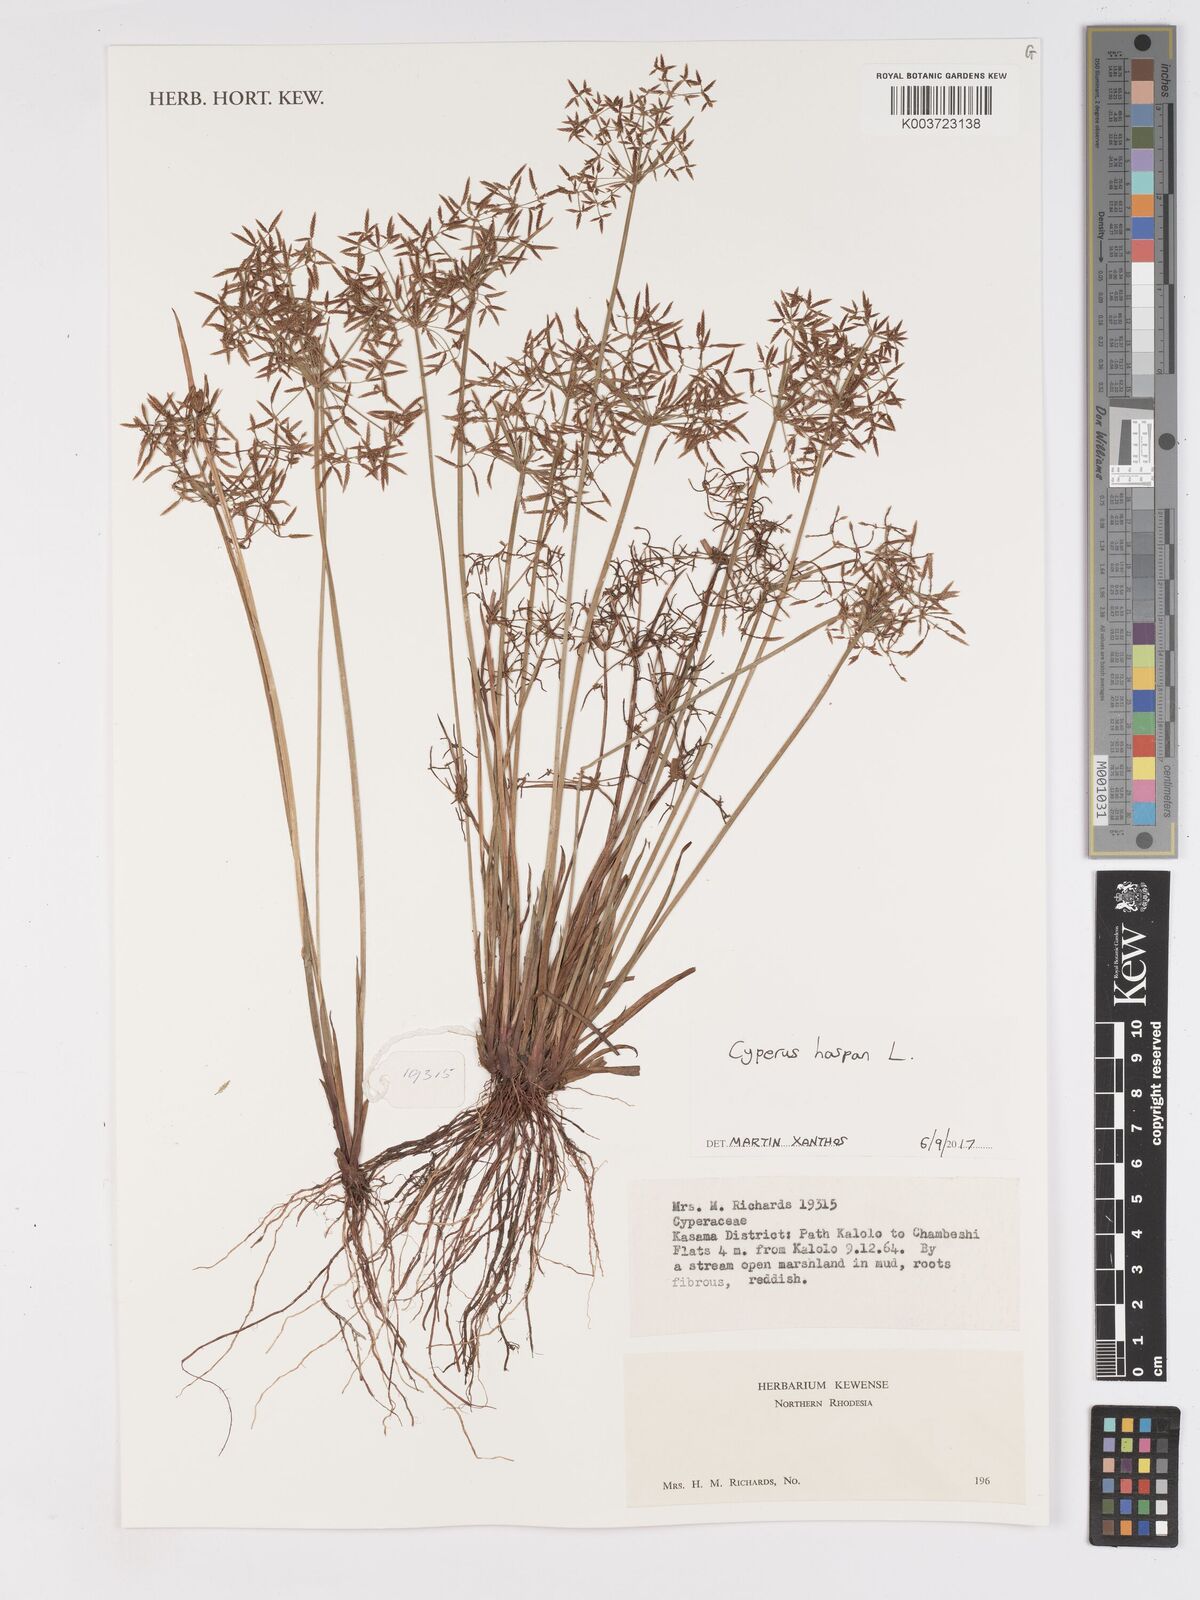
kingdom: Plantae
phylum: Tracheophyta
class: Liliopsida
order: Poales
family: Cyperaceae
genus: Cyperus
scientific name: Cyperus haspan
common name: Haspan flatsedge
